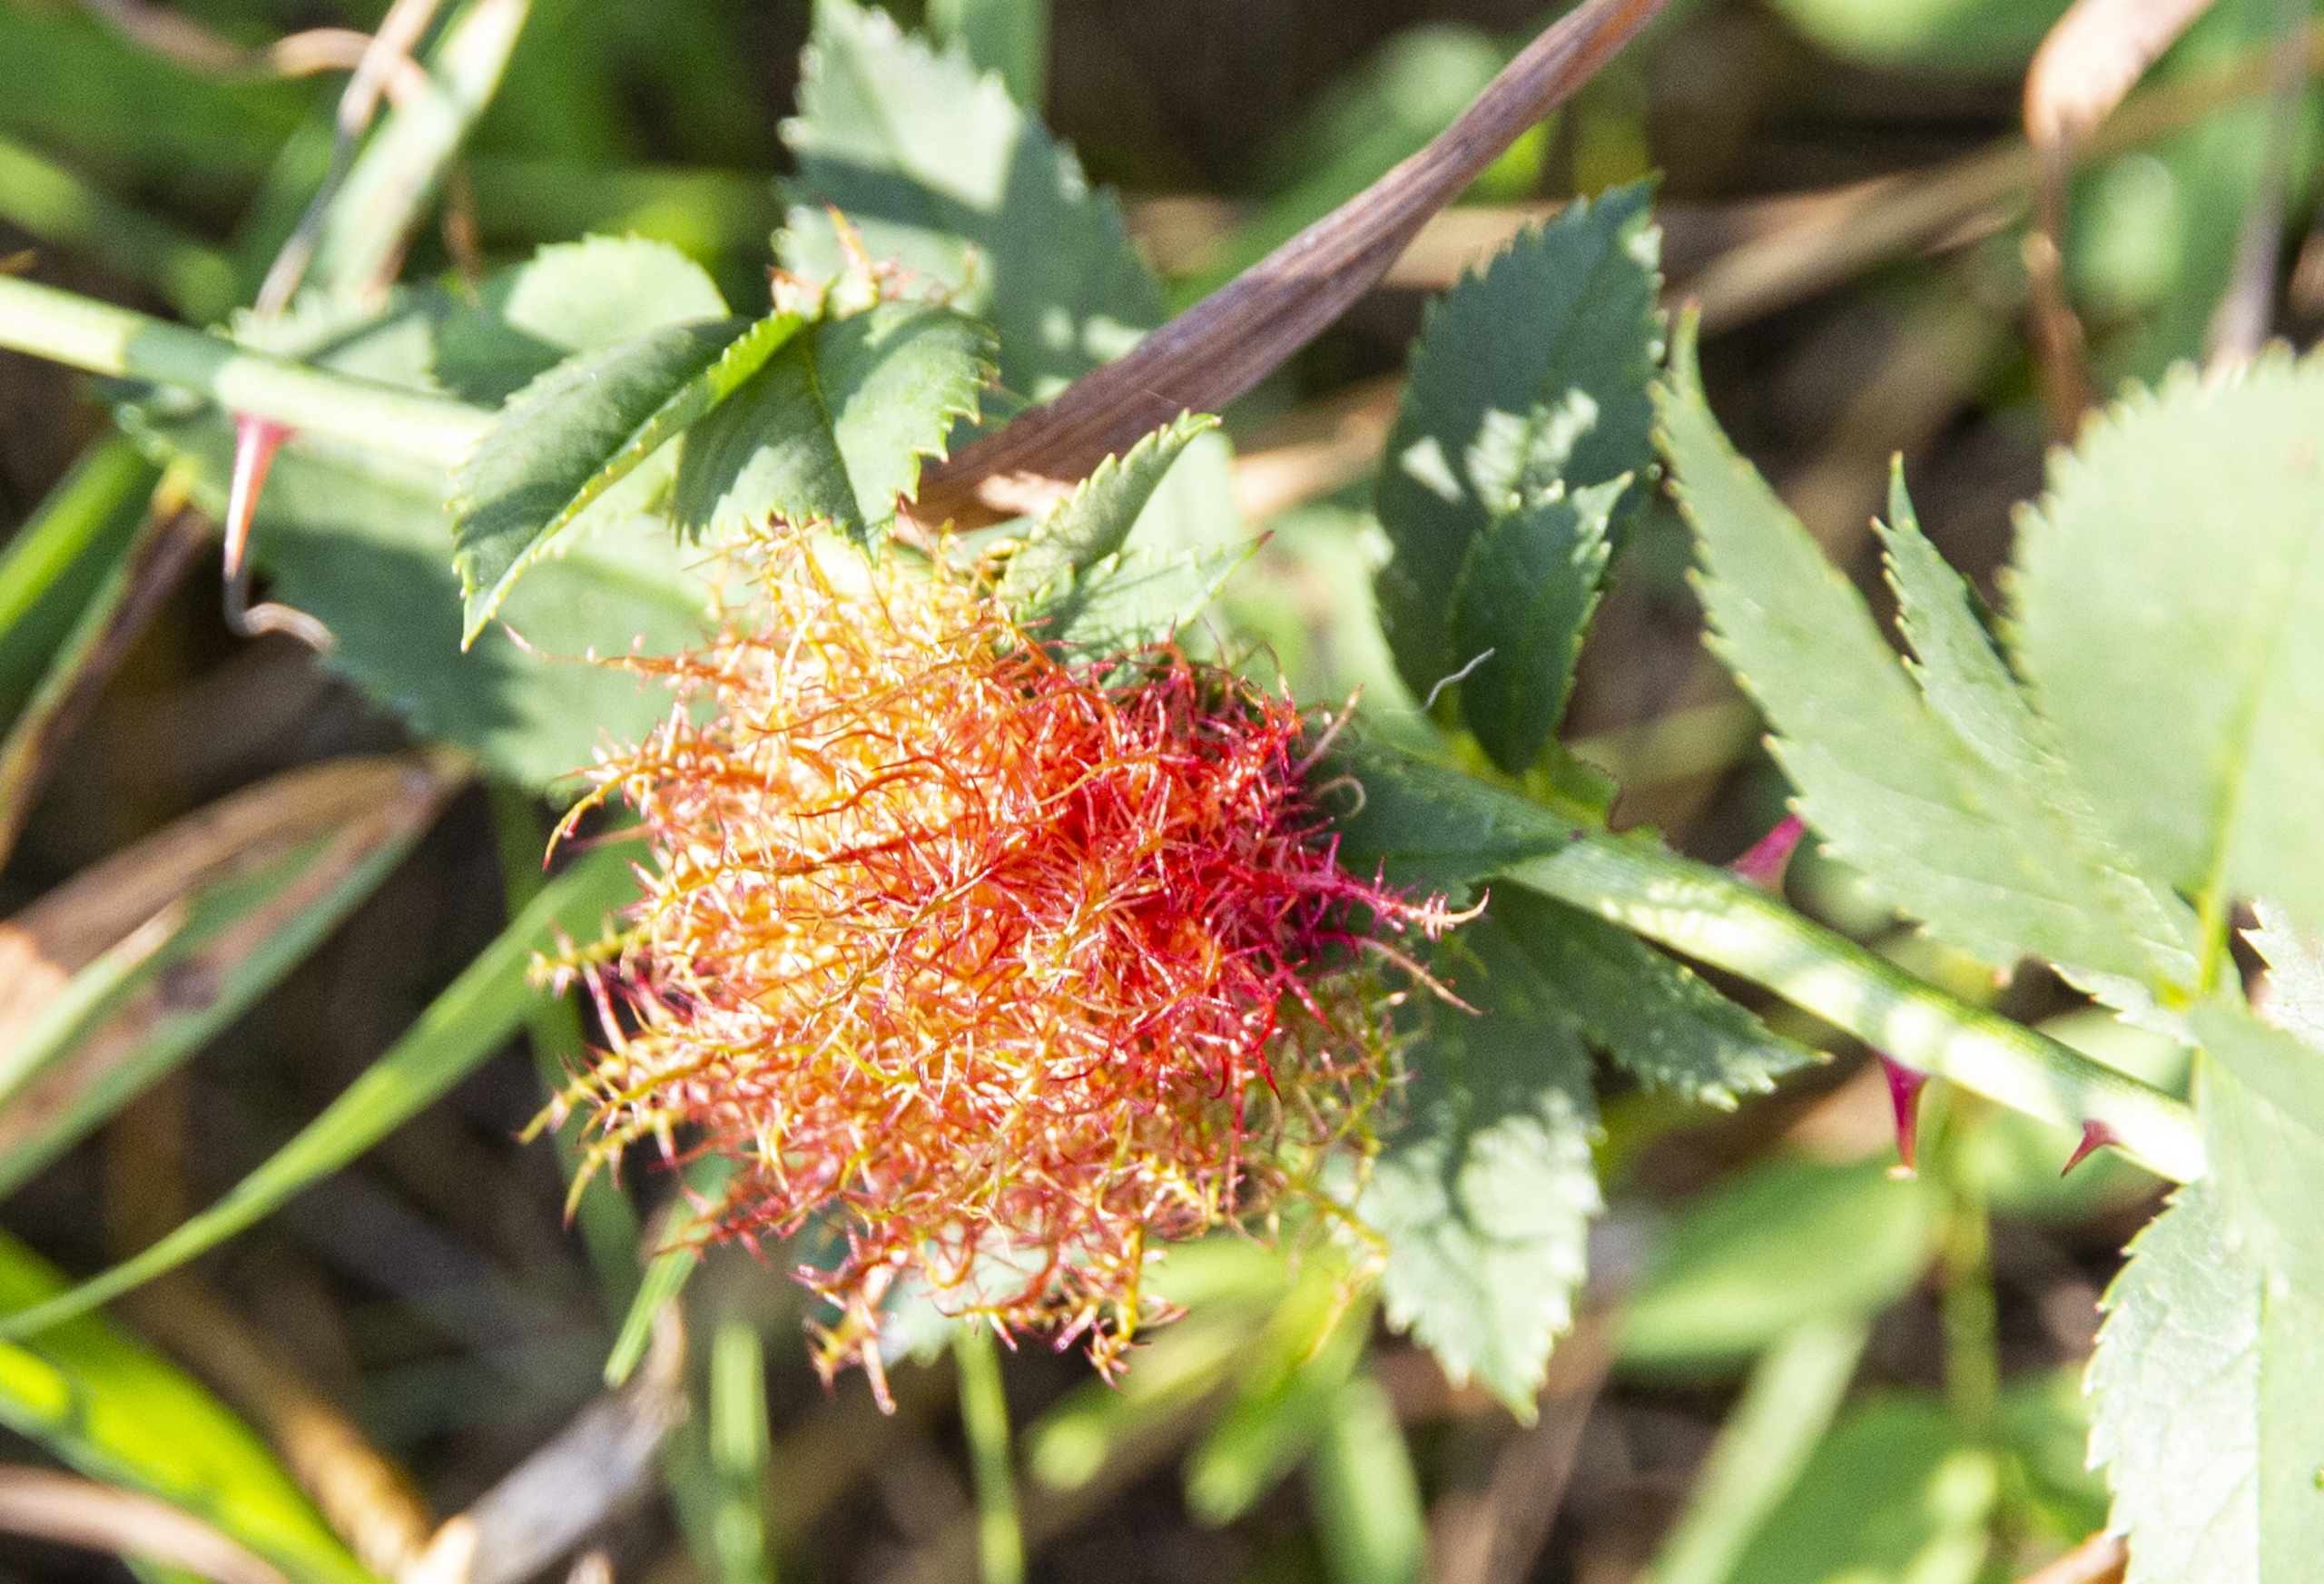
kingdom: Animalia
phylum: Arthropoda
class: Insecta
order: Hymenoptera
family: Cynipidae
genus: Diplolepis
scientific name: Diplolepis rosae
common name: Bedeguargalhveps
